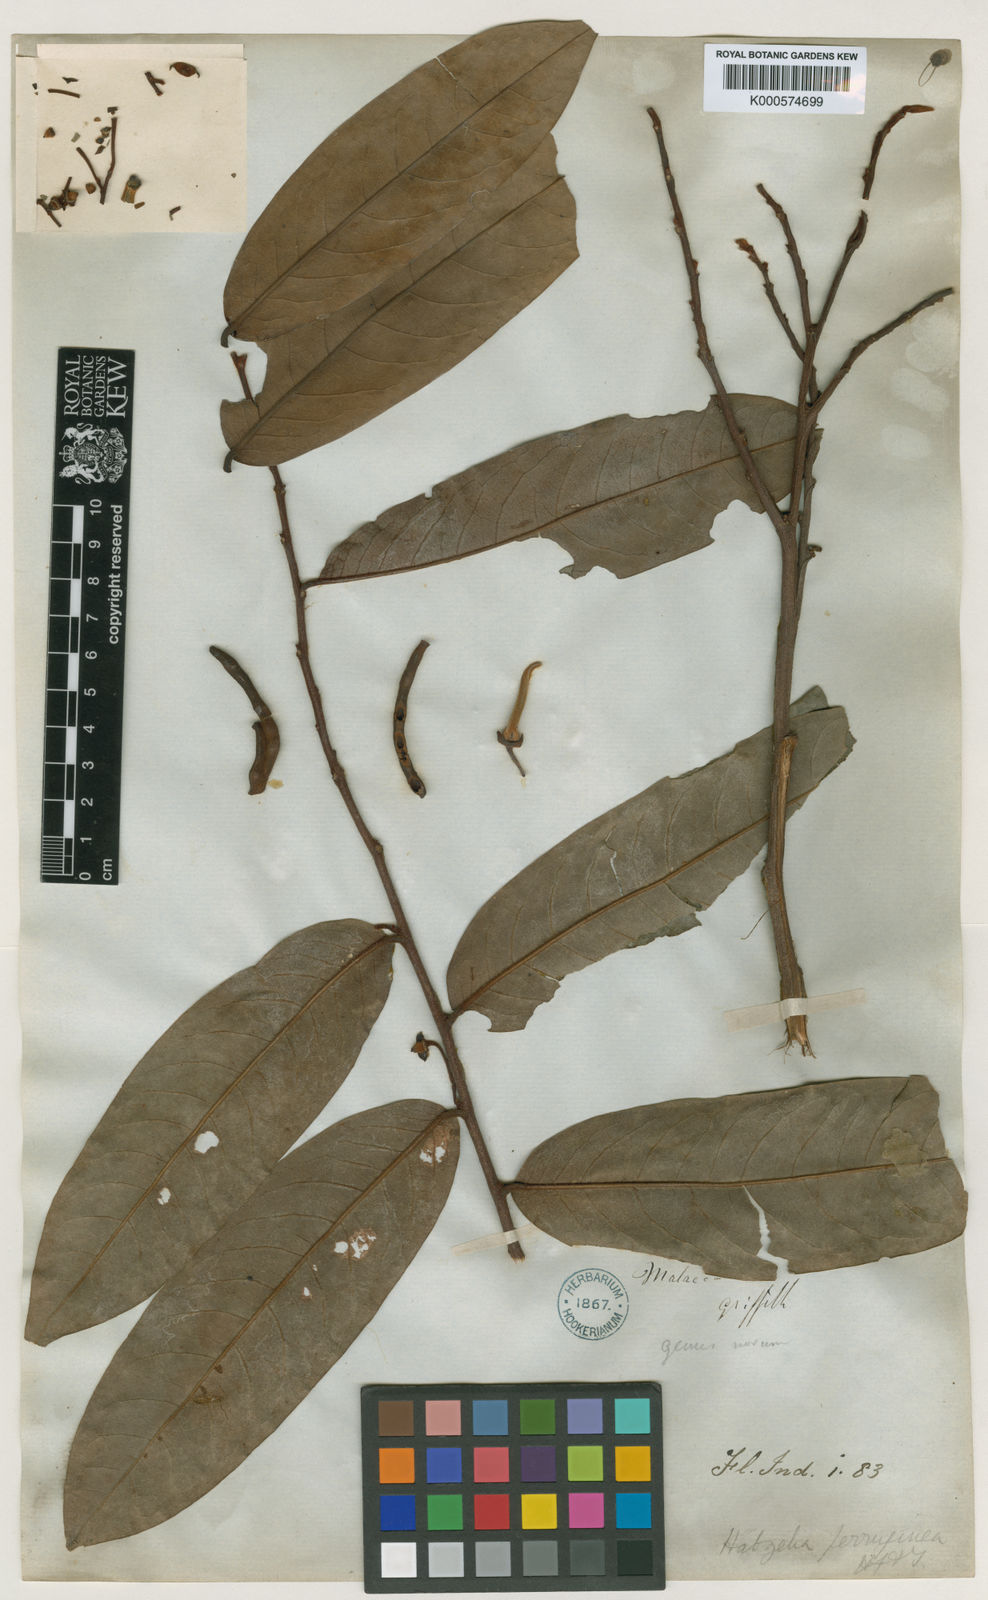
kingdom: Plantae
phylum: Tracheophyta
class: Magnoliopsida
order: Magnoliales
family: Annonaceae
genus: Xylopia
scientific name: Xylopia ferruginea
